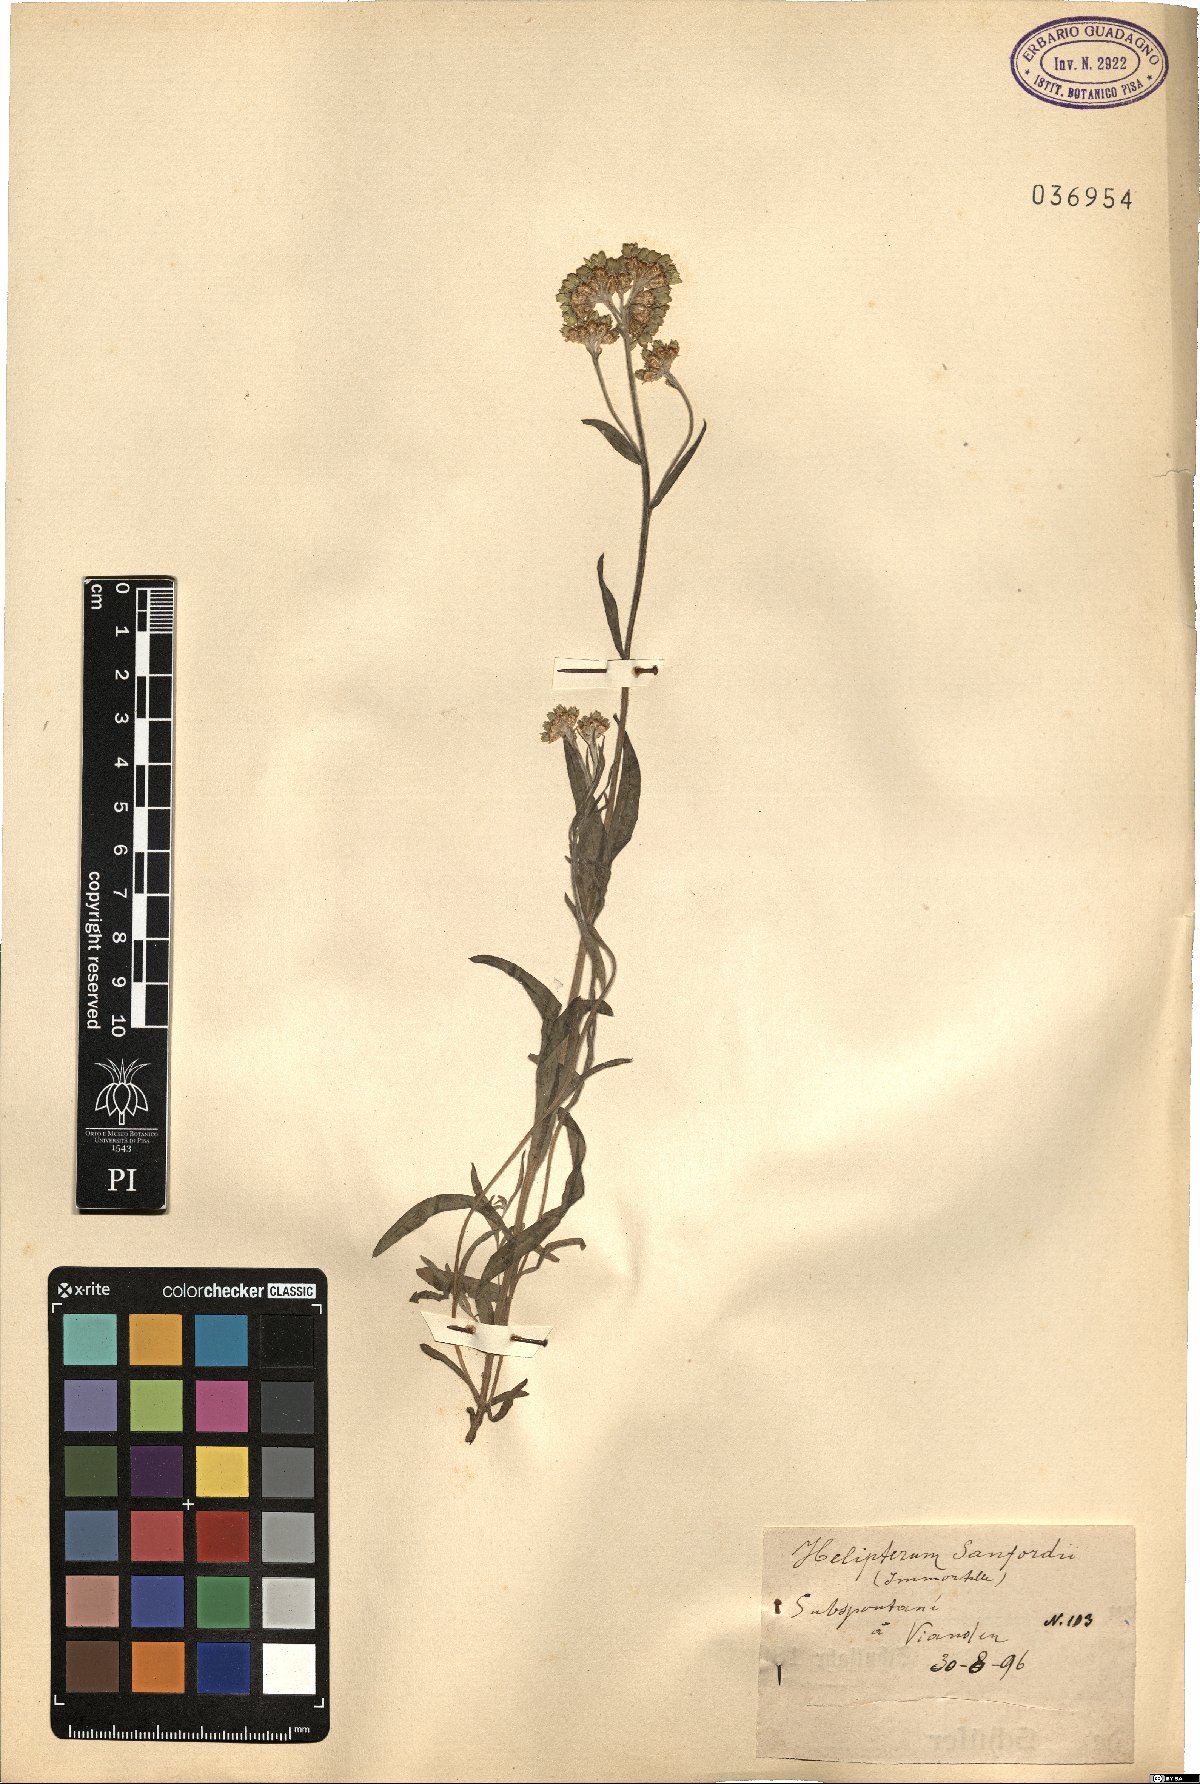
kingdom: Plantae
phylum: Tracheophyta
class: Magnoliopsida
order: Asterales
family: Asteraceae
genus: Rhodanthe
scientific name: Rhodanthe humboldtiana
